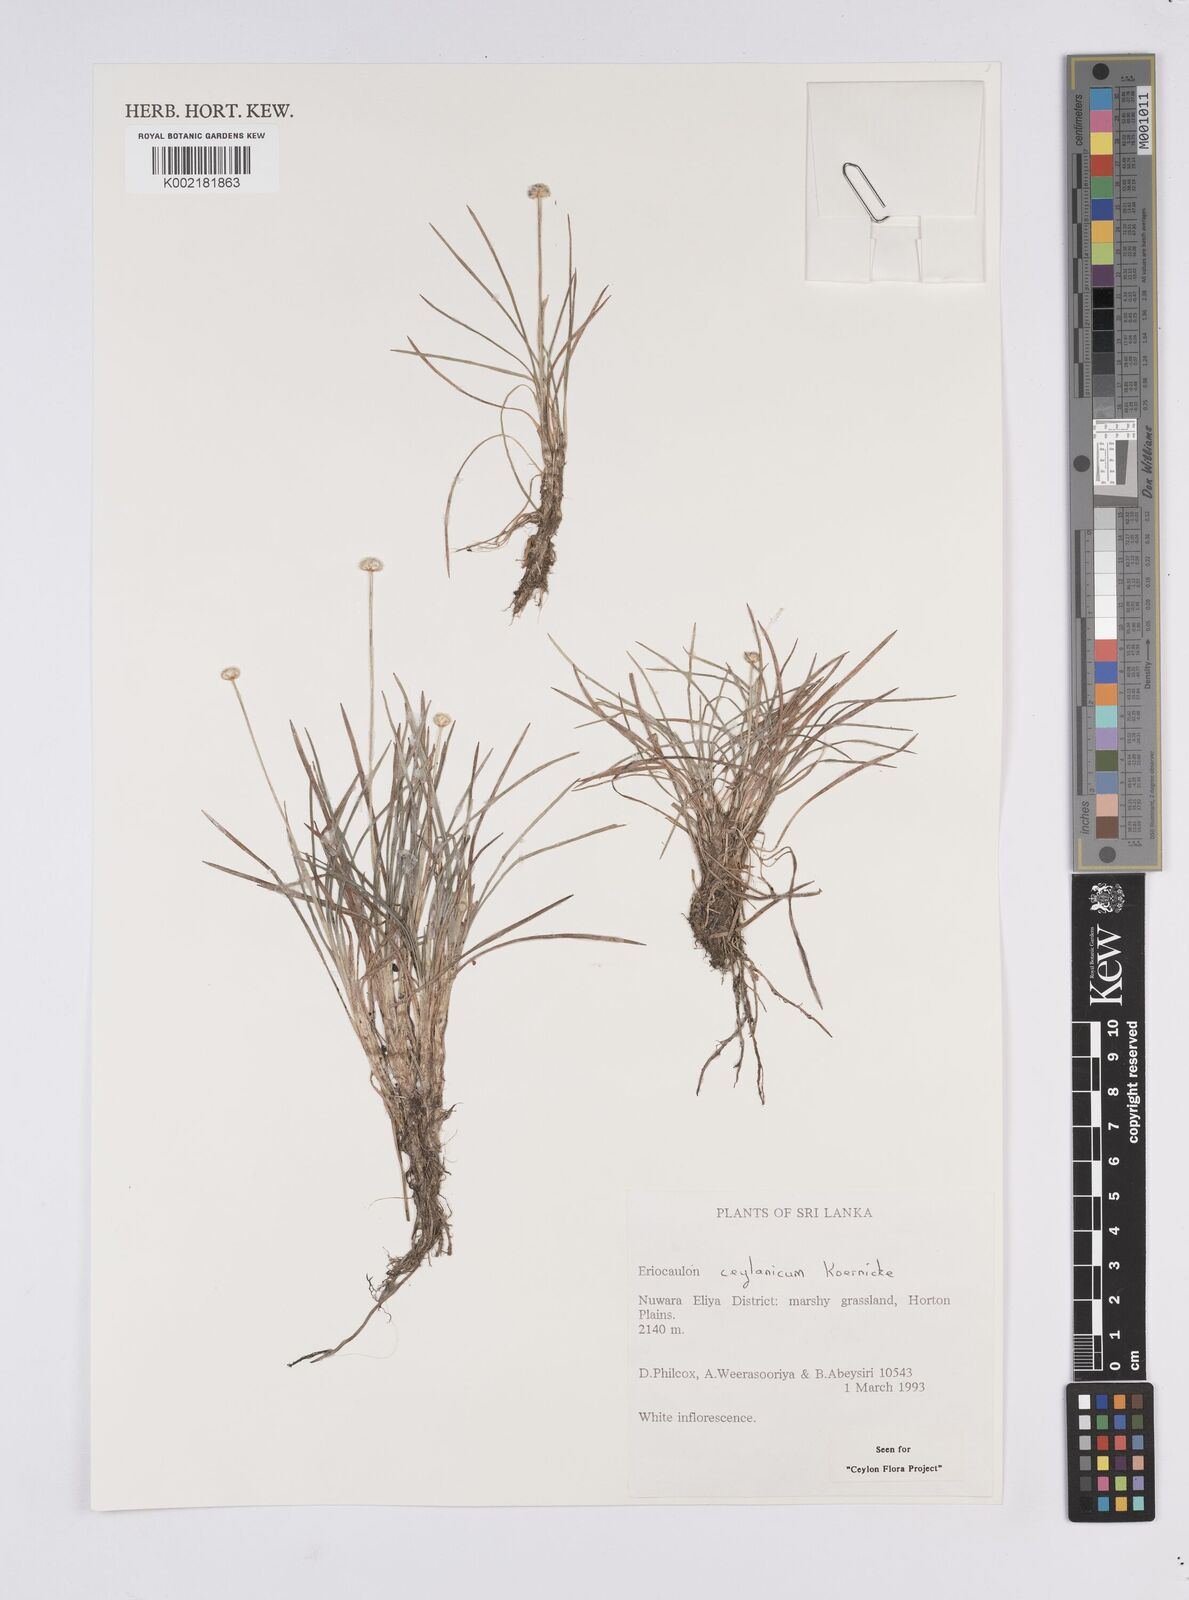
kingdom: Plantae
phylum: Tracheophyta
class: Liliopsida
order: Poales
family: Eriocaulaceae
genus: Eriocaulon
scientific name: Eriocaulon ceylanicum
